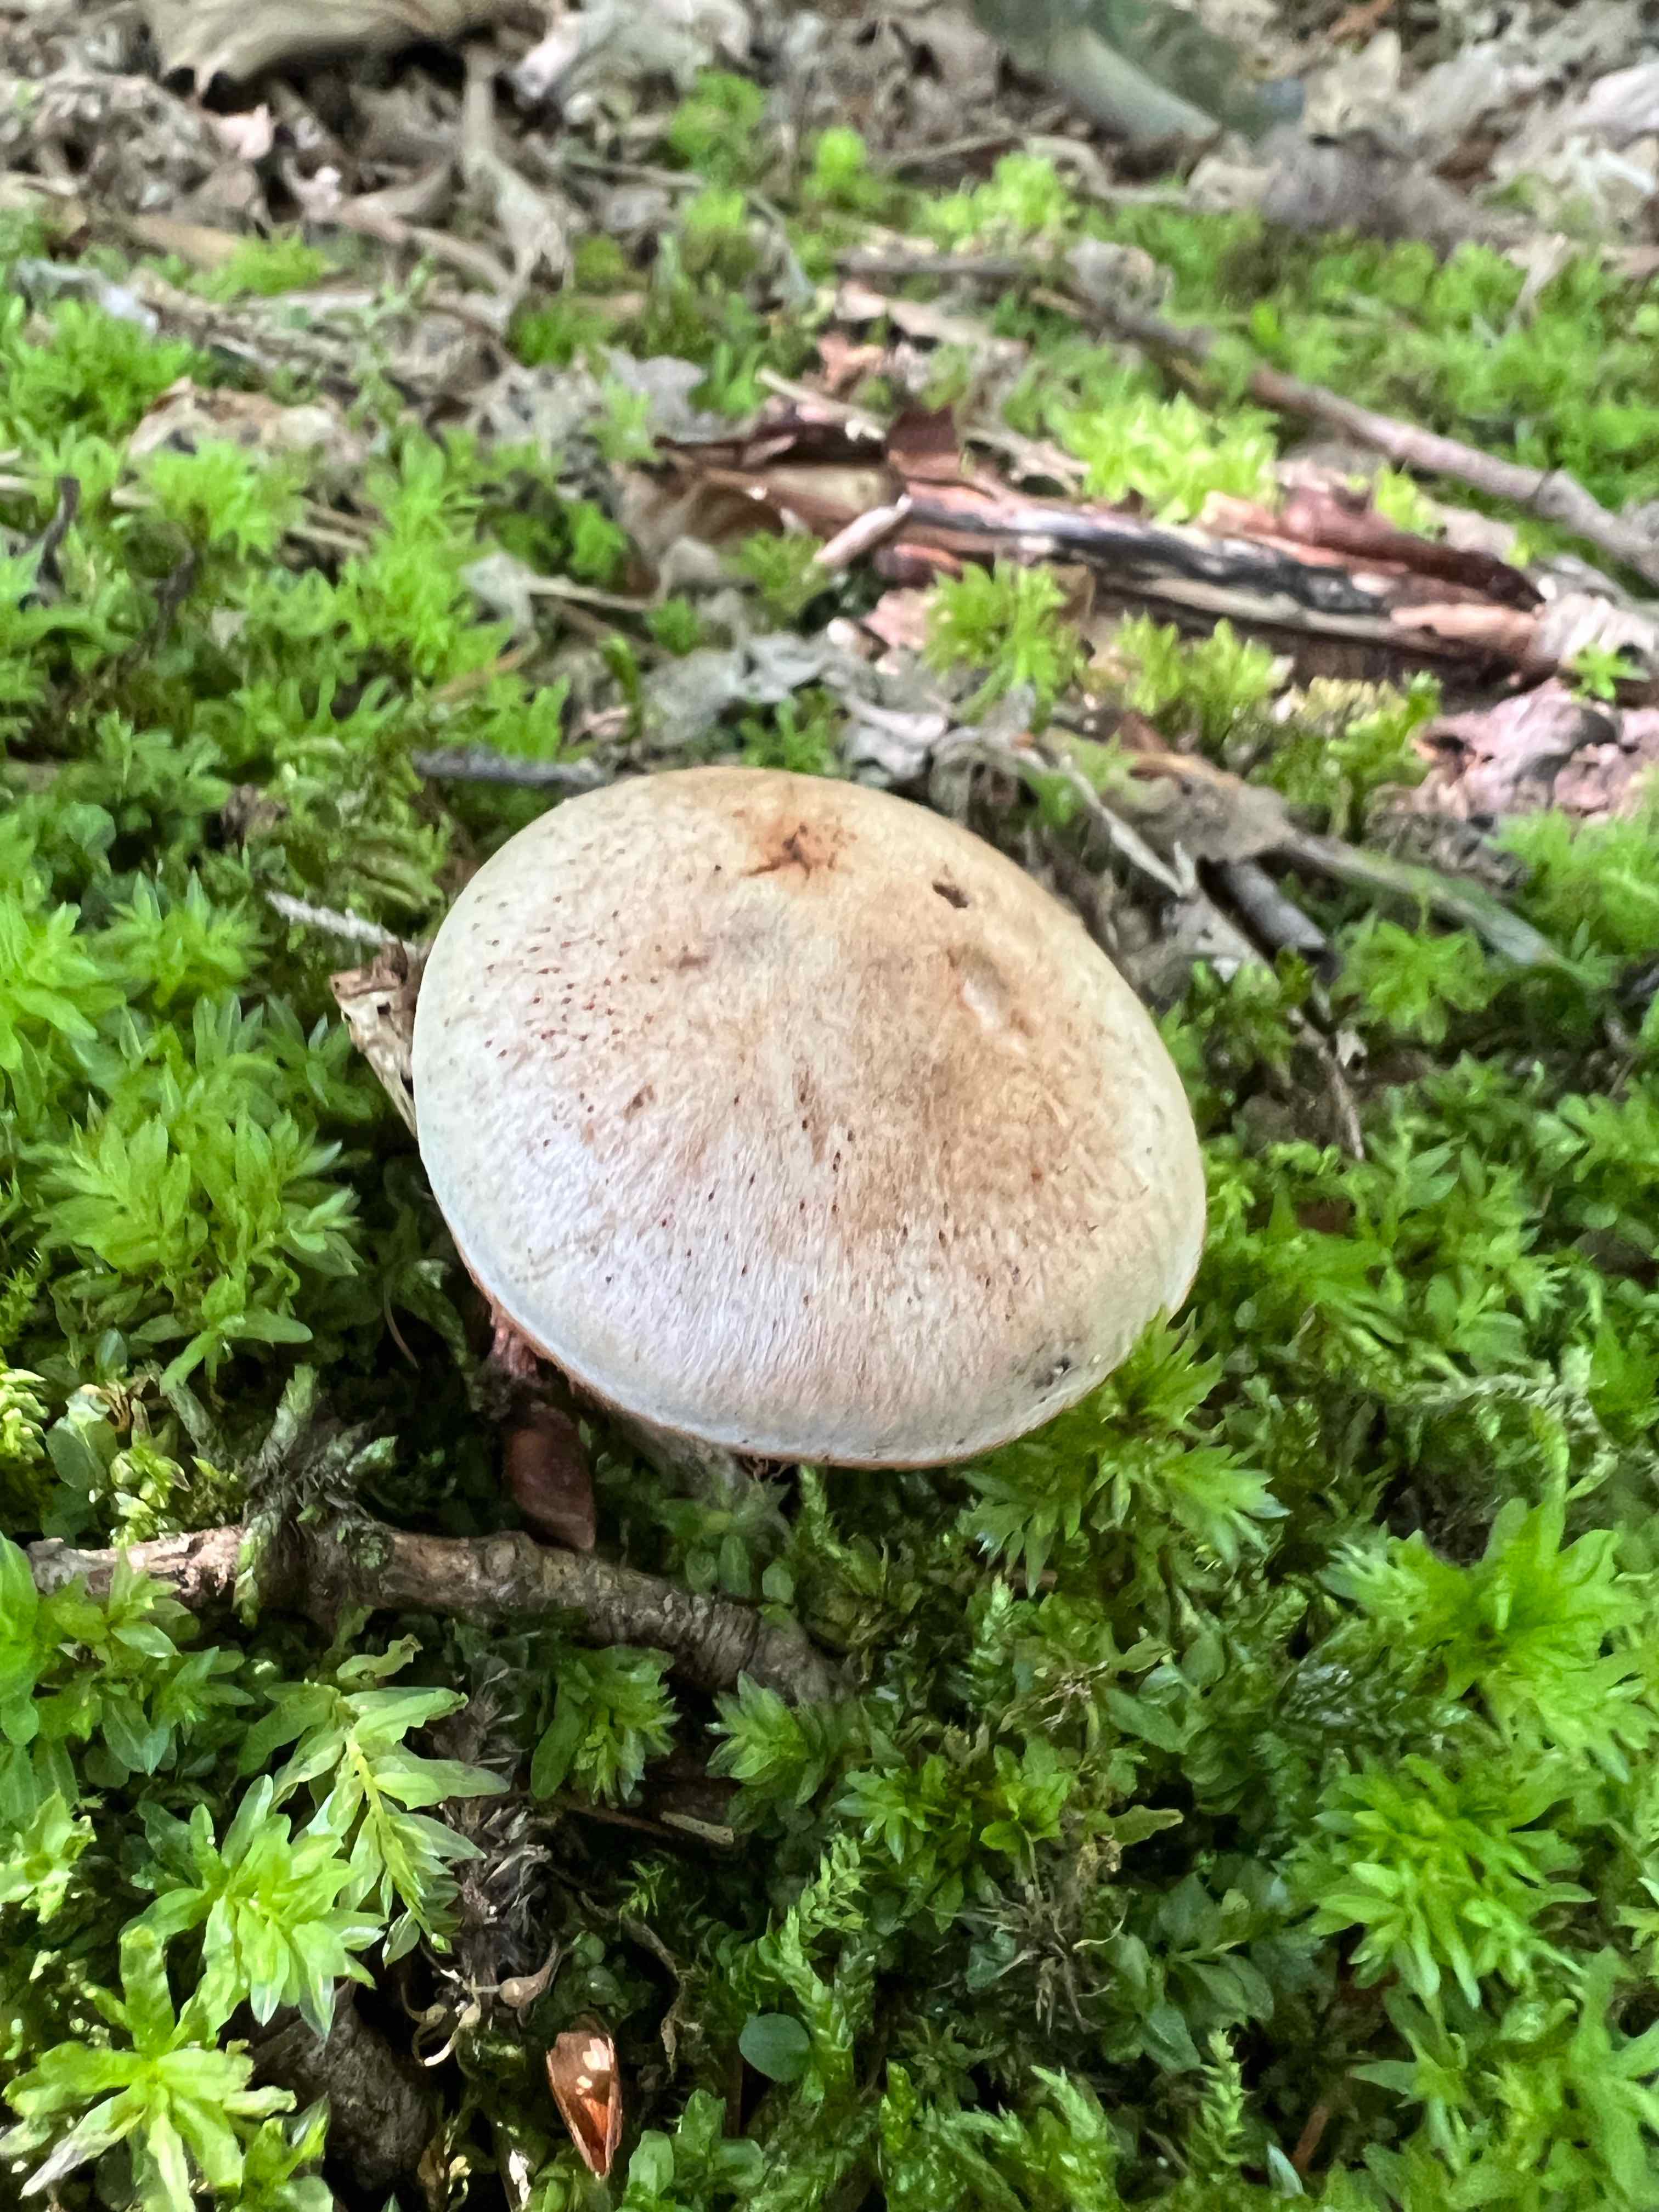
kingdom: Fungi
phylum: Basidiomycota
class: Agaricomycetes
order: Agaricales
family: Cortinariaceae
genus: Cortinarius
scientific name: Cortinarius
